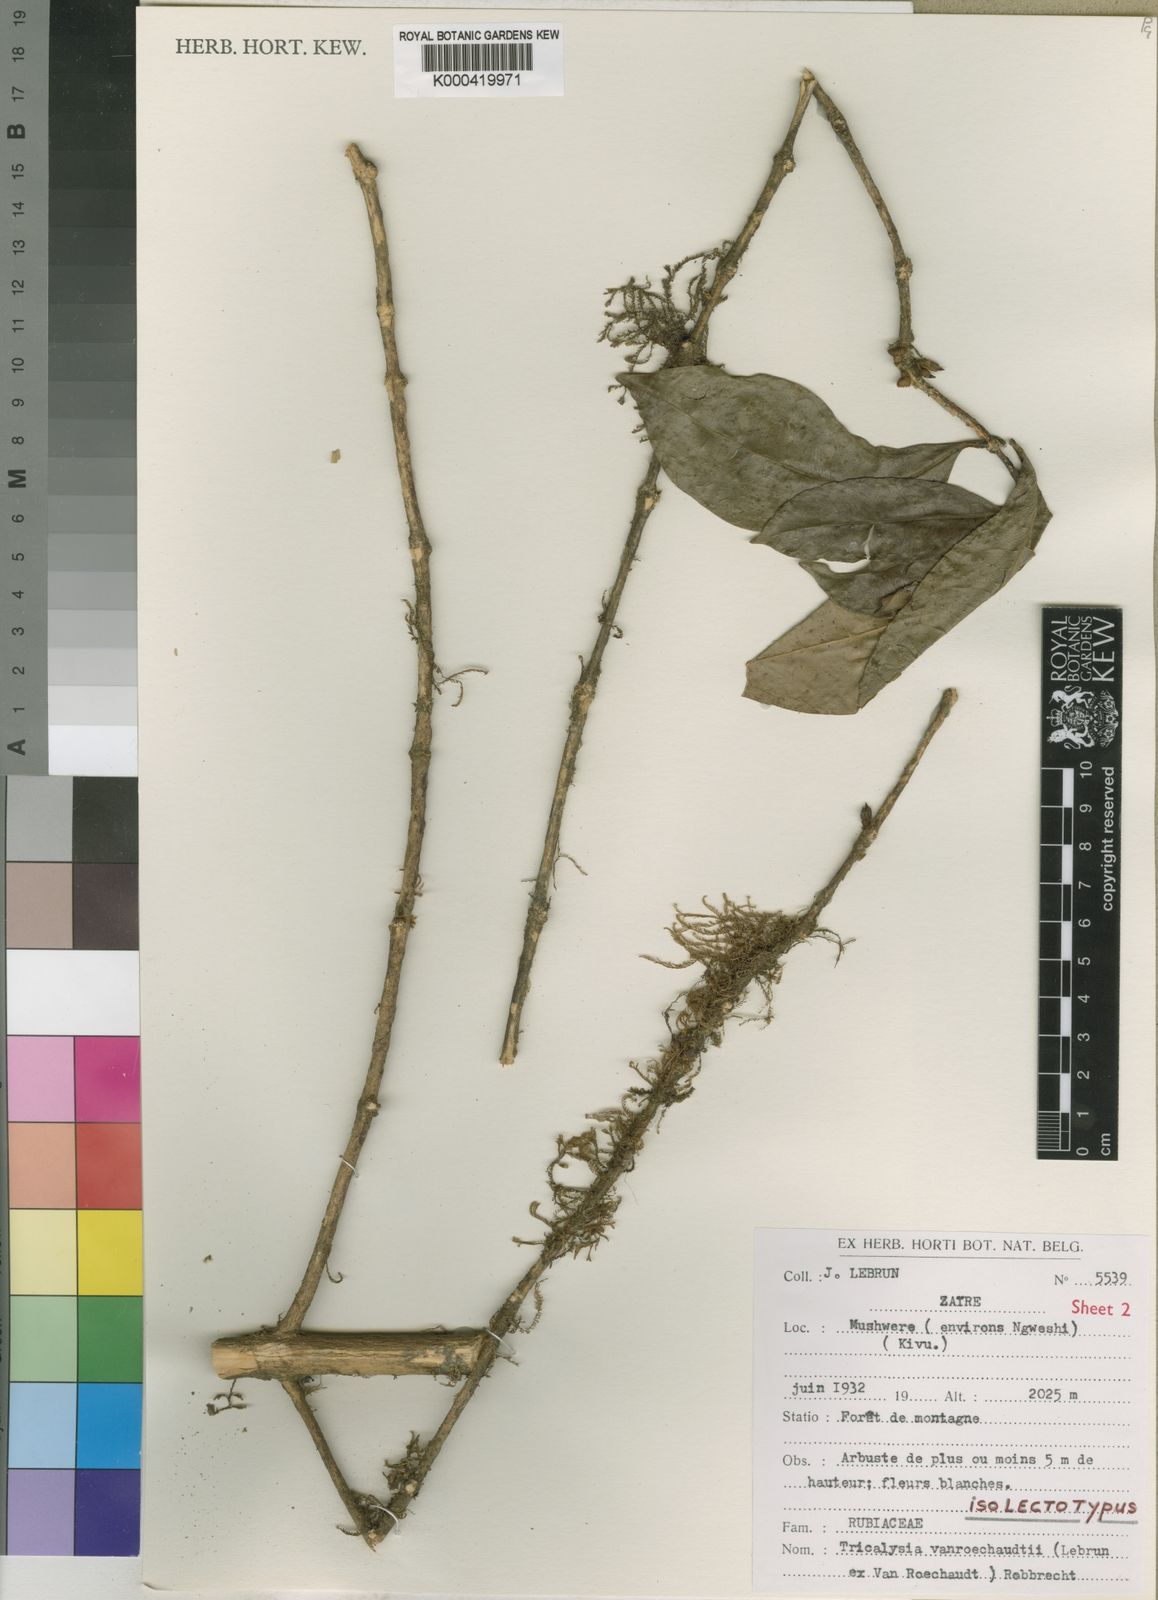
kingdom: Plantae
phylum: Tracheophyta
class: Magnoliopsida
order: Gentianales
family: Rubiaceae
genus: Tricalysia
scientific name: Tricalysia vanroechoudtii
